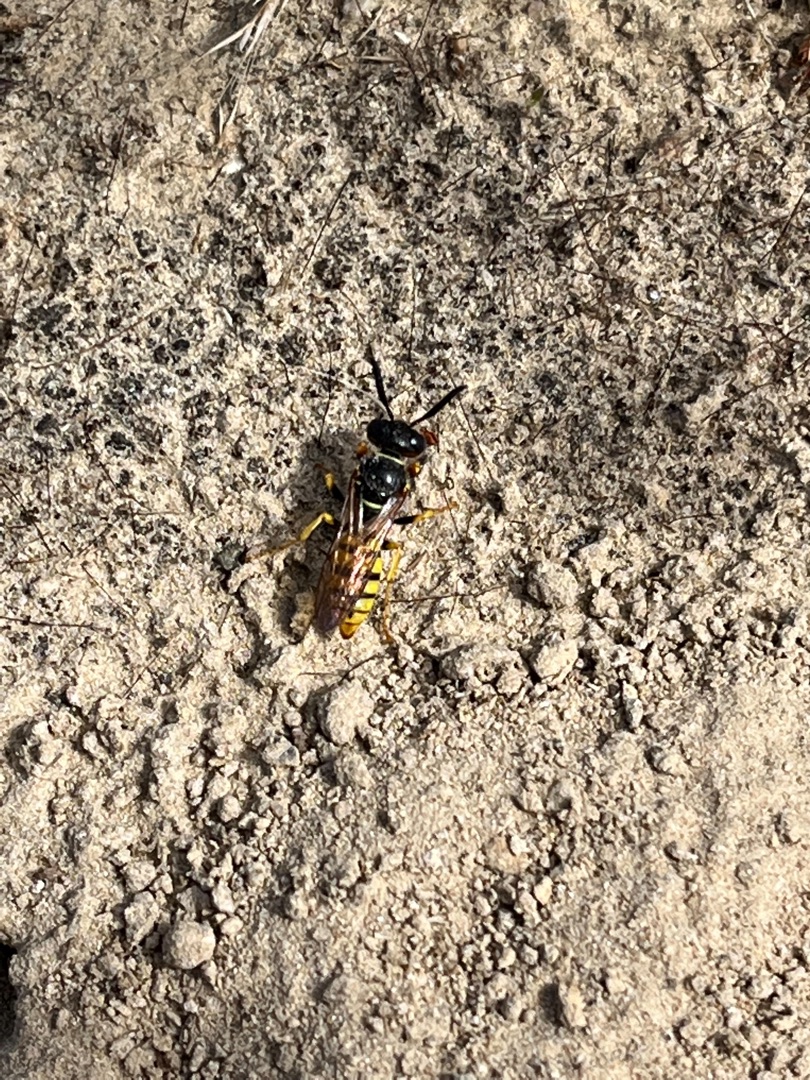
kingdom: Animalia
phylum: Arthropoda
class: Insecta
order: Hymenoptera
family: Crabronidae
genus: Philanthus
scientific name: Philanthus triangulum
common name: Biulv
